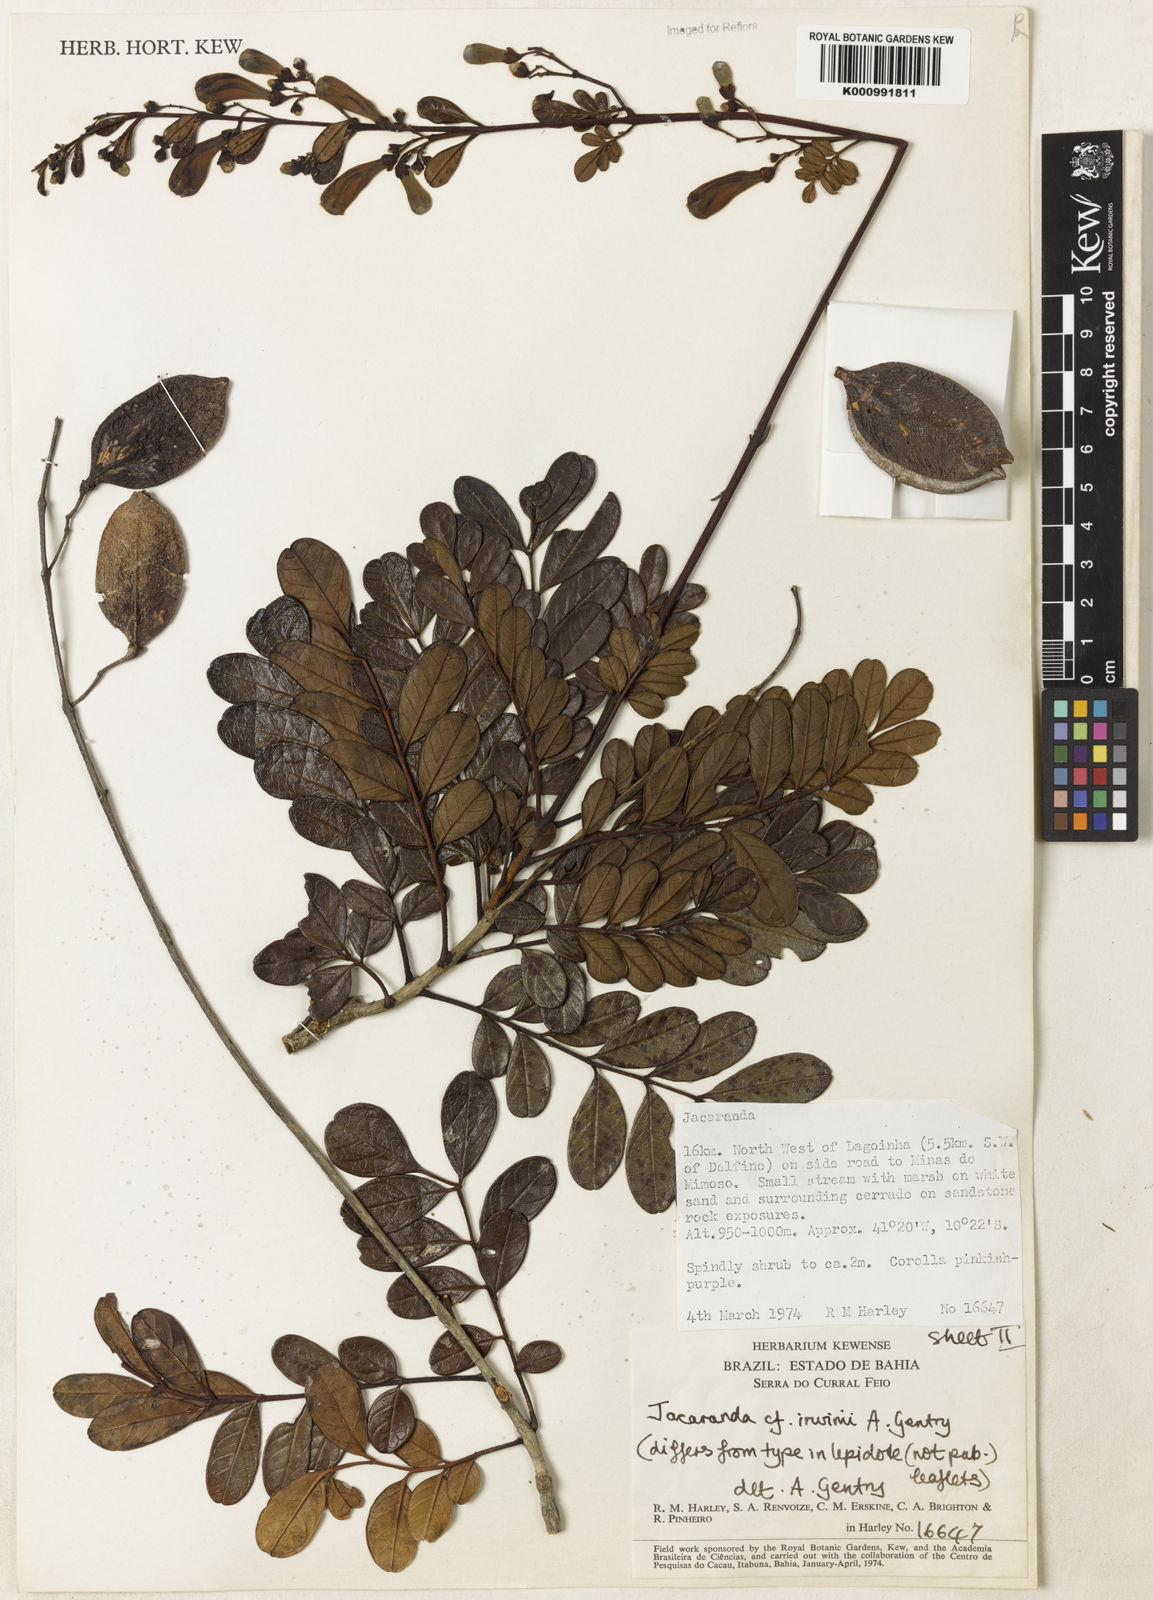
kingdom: Plantae
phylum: Tracheophyta
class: Magnoliopsida
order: Lamiales
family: Bignoniaceae
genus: Jacaranda
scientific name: Jacaranda irwinii
